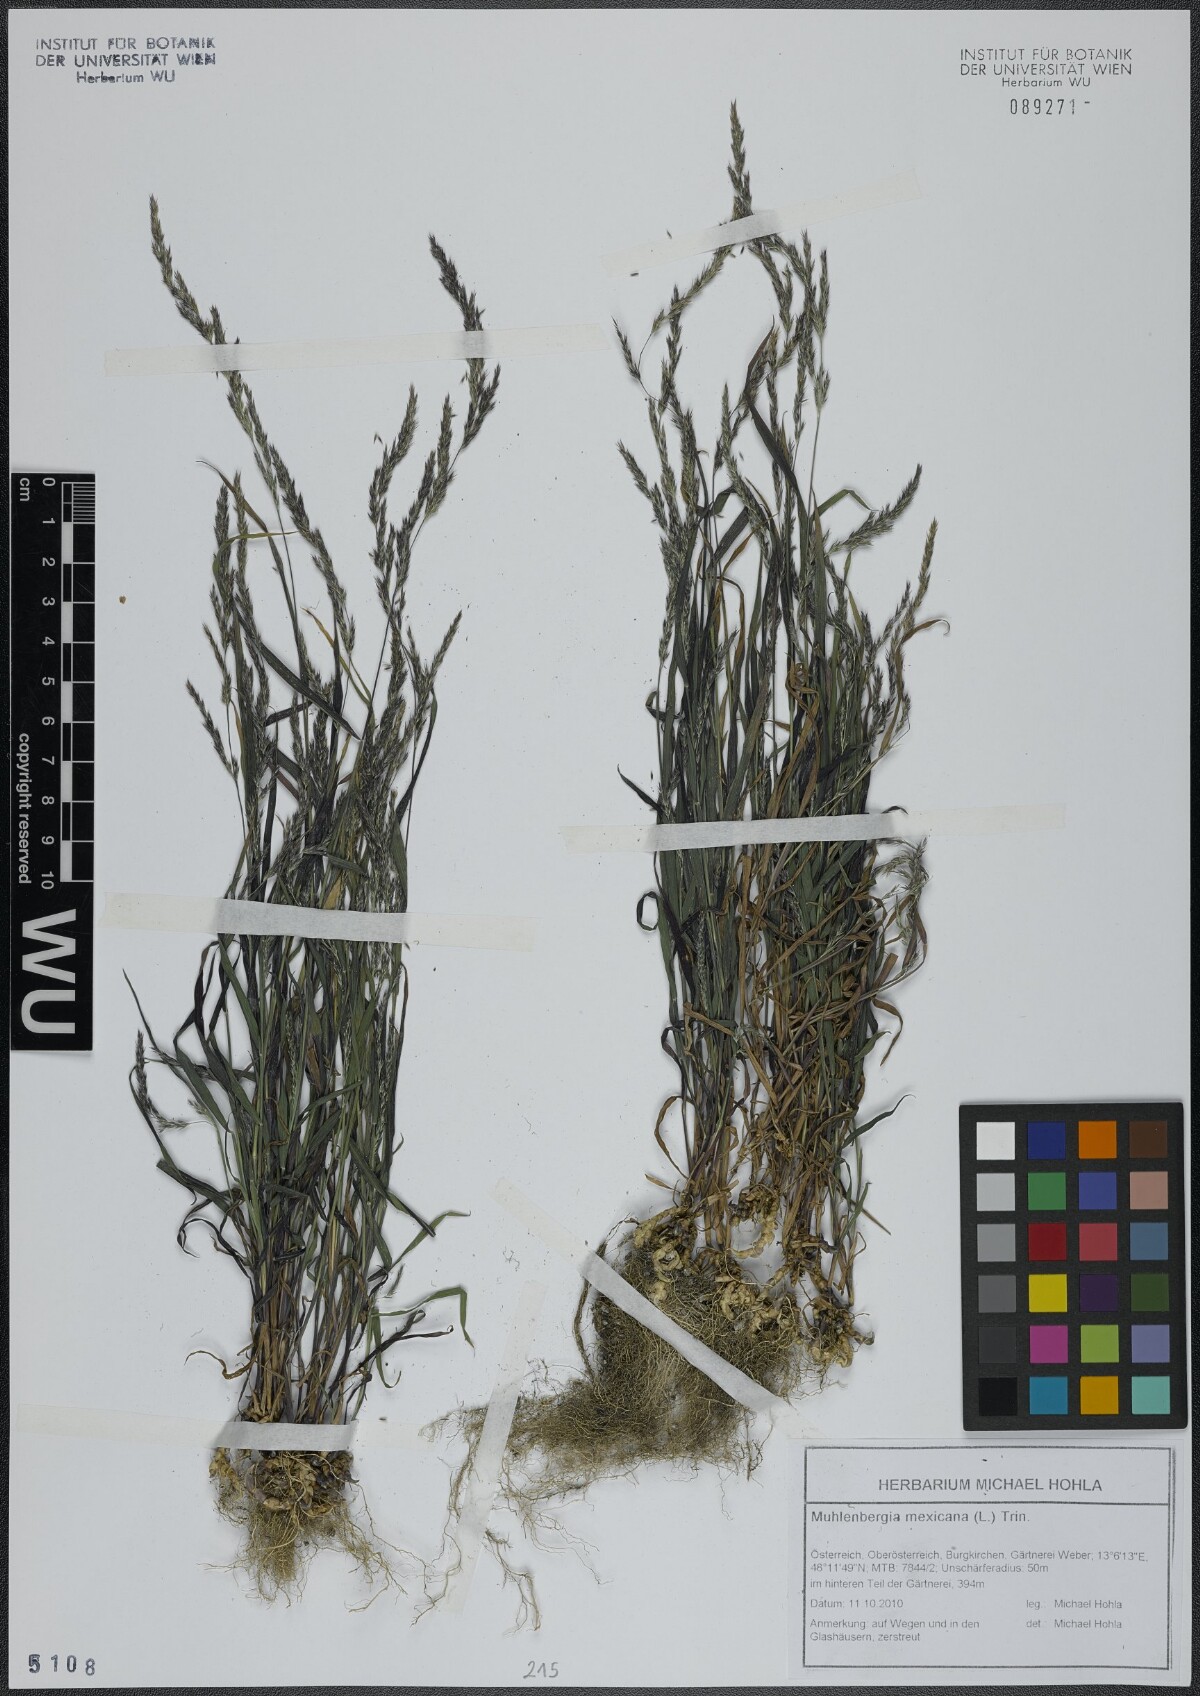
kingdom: Plantae
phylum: Tracheophyta
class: Liliopsida
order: Poales
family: Poaceae
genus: Muhlenbergia
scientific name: Muhlenbergia mexicana
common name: Mexican muhly
